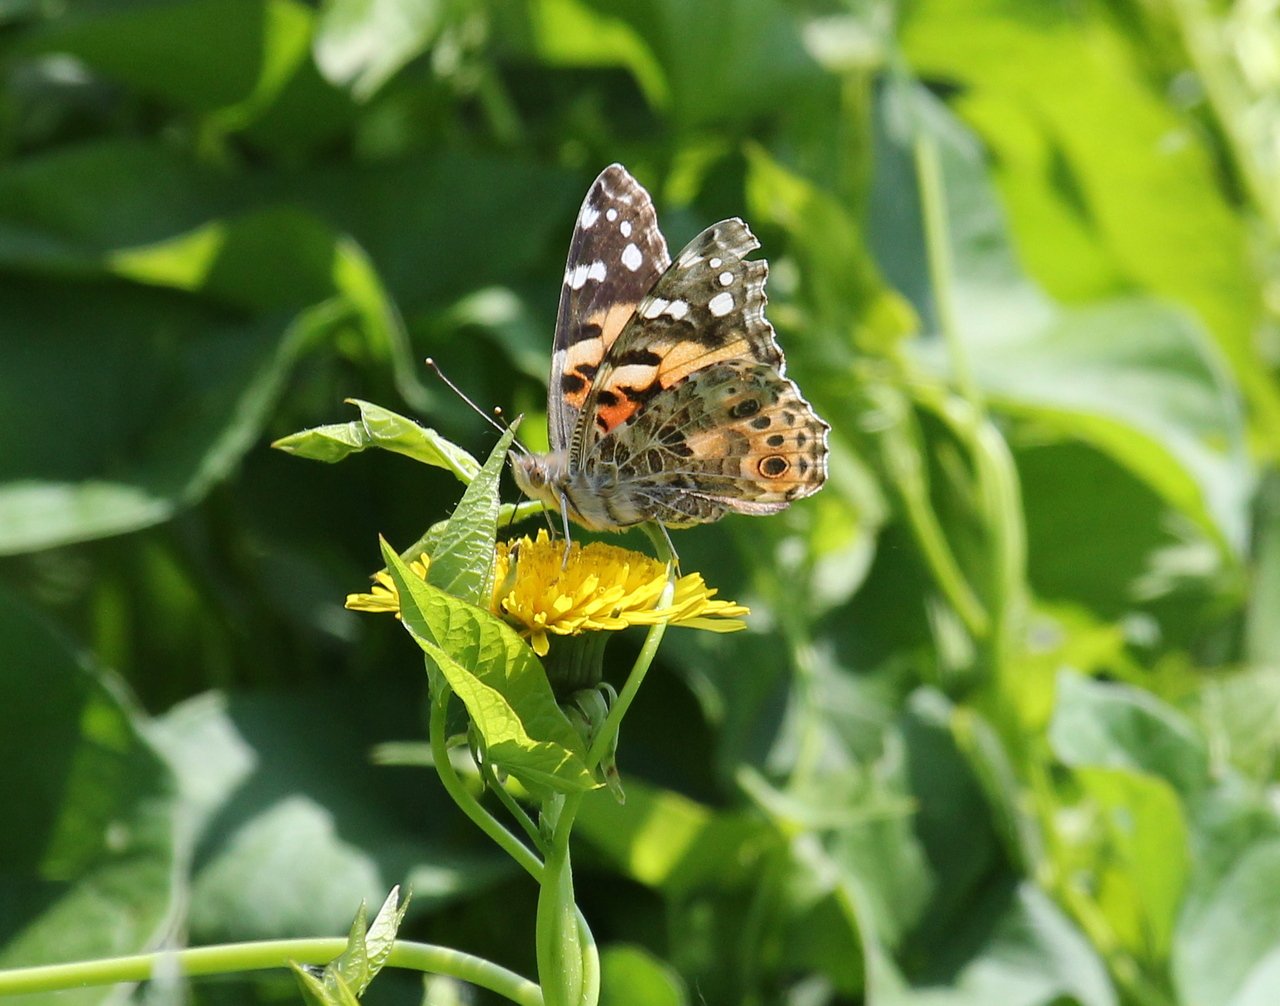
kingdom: Animalia
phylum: Arthropoda
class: Insecta
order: Lepidoptera
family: Nymphalidae
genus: Vanessa
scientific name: Vanessa cardui
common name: Painted Lady
